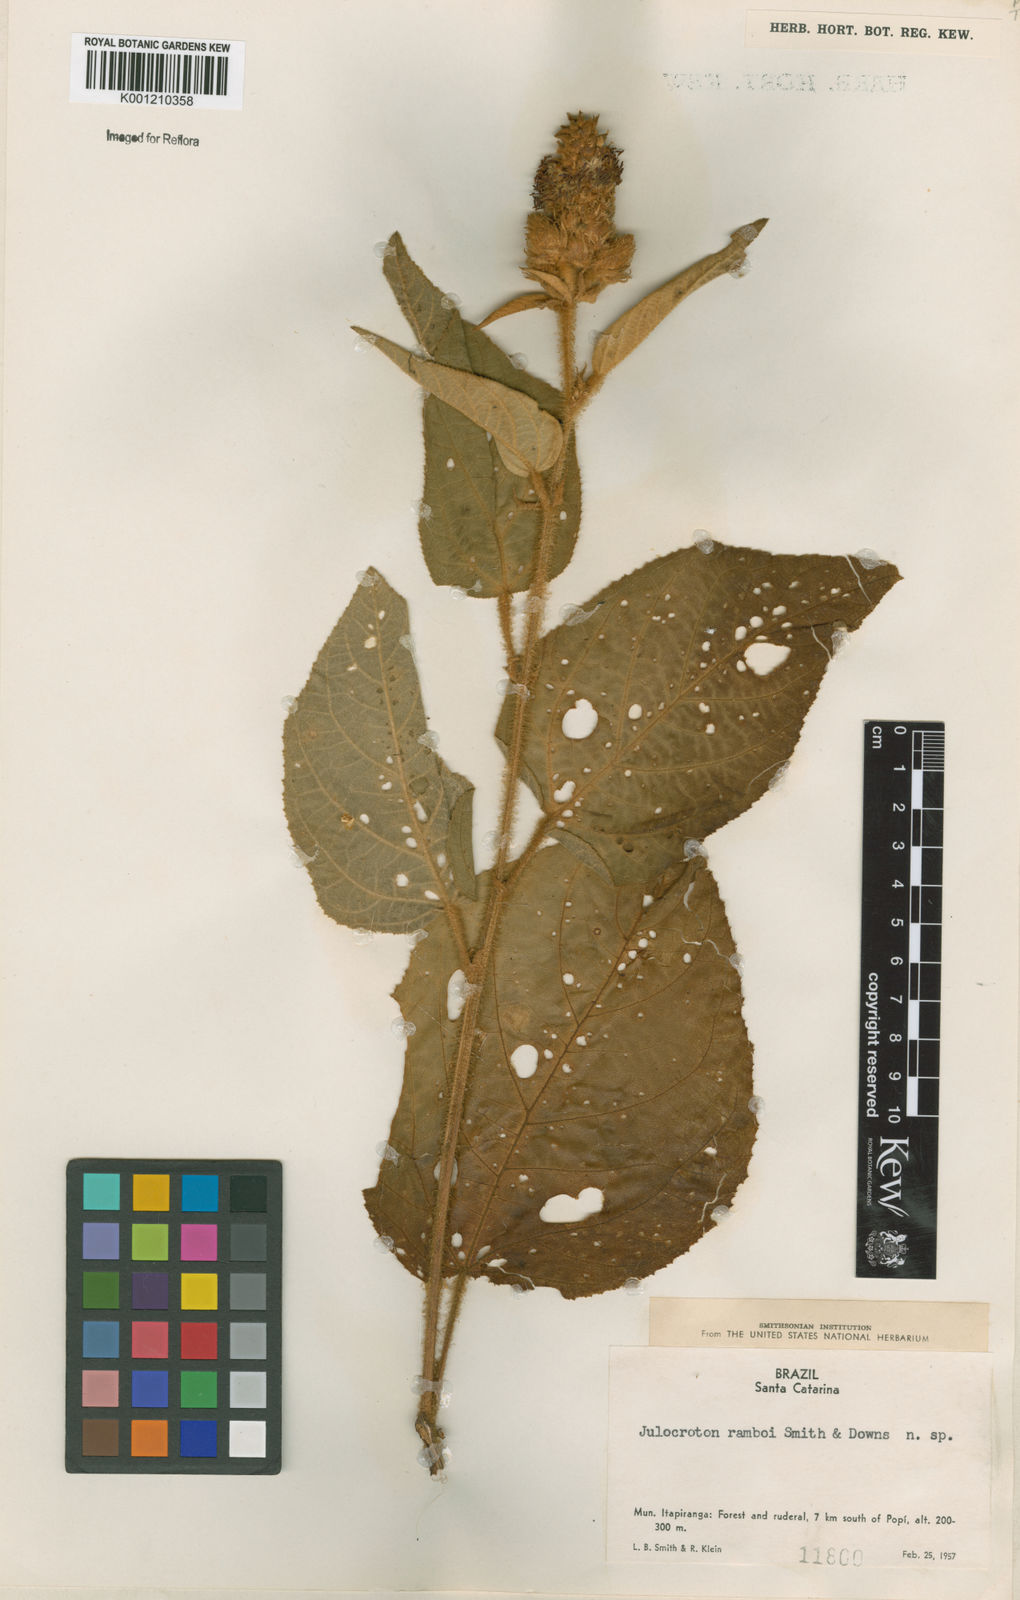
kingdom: Plantae
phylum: Tracheophyta
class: Magnoliopsida
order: Malpighiales
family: Euphorbiaceae
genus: Croton
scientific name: Croton allemii
